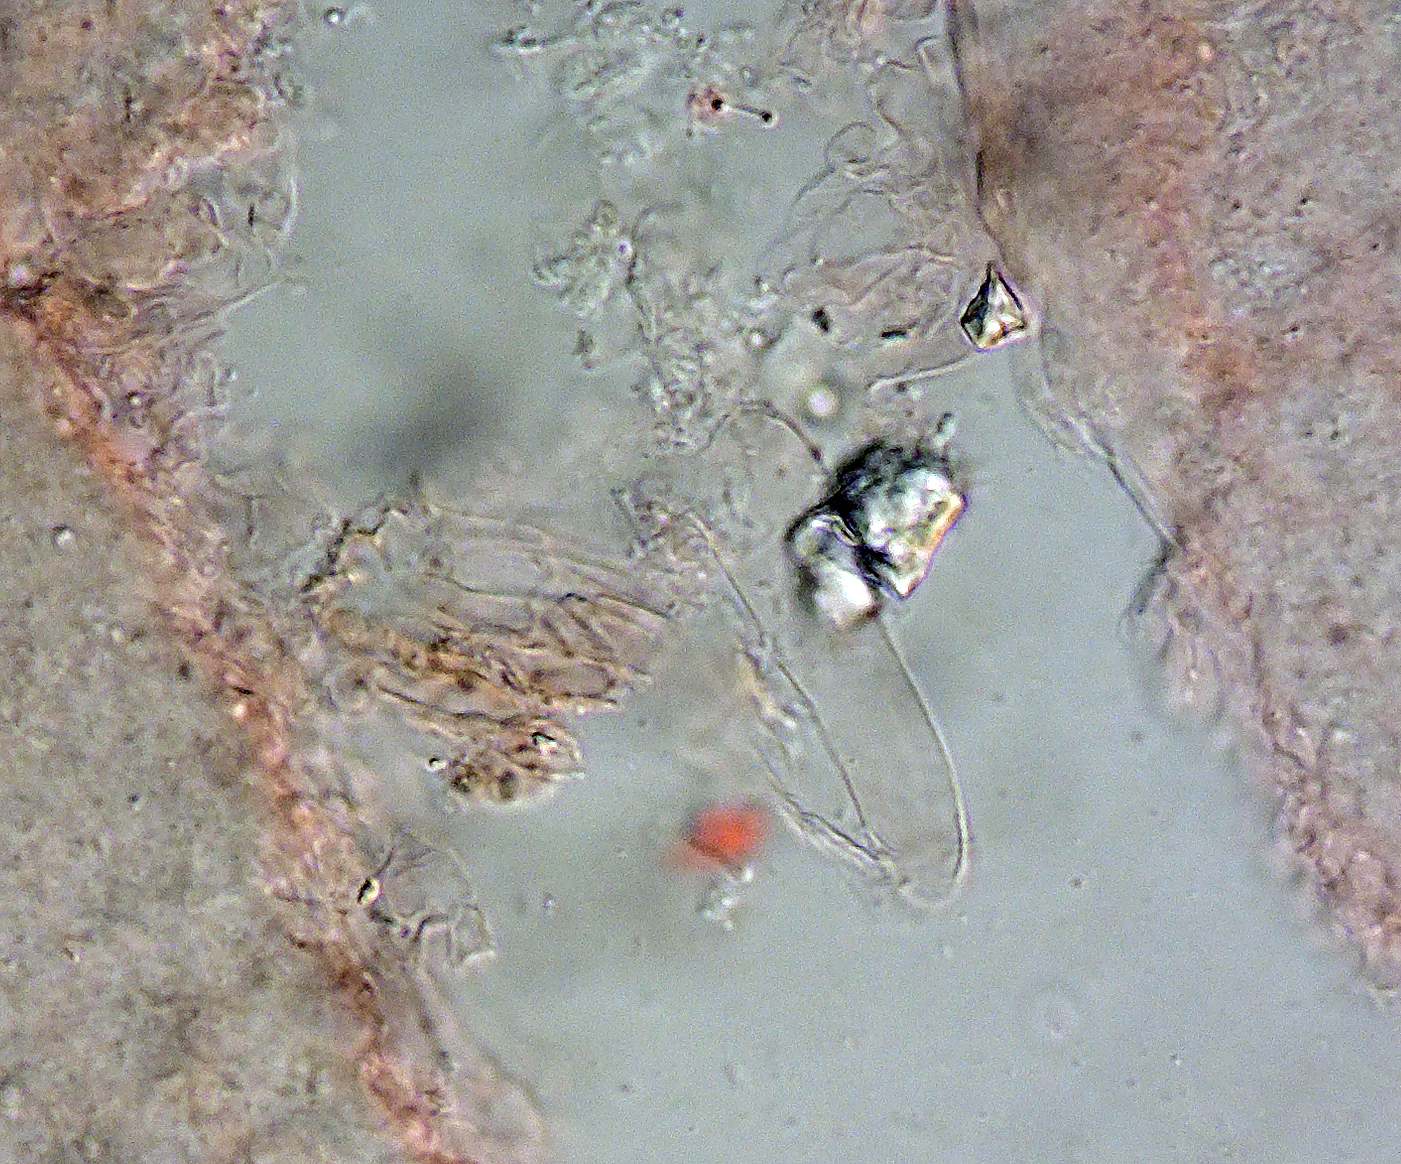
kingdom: Fungi
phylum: Basidiomycota
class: Agaricomycetes
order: Agaricales
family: Psathyrellaceae
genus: Coprinopsis
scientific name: Coprinopsis
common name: blækhat
